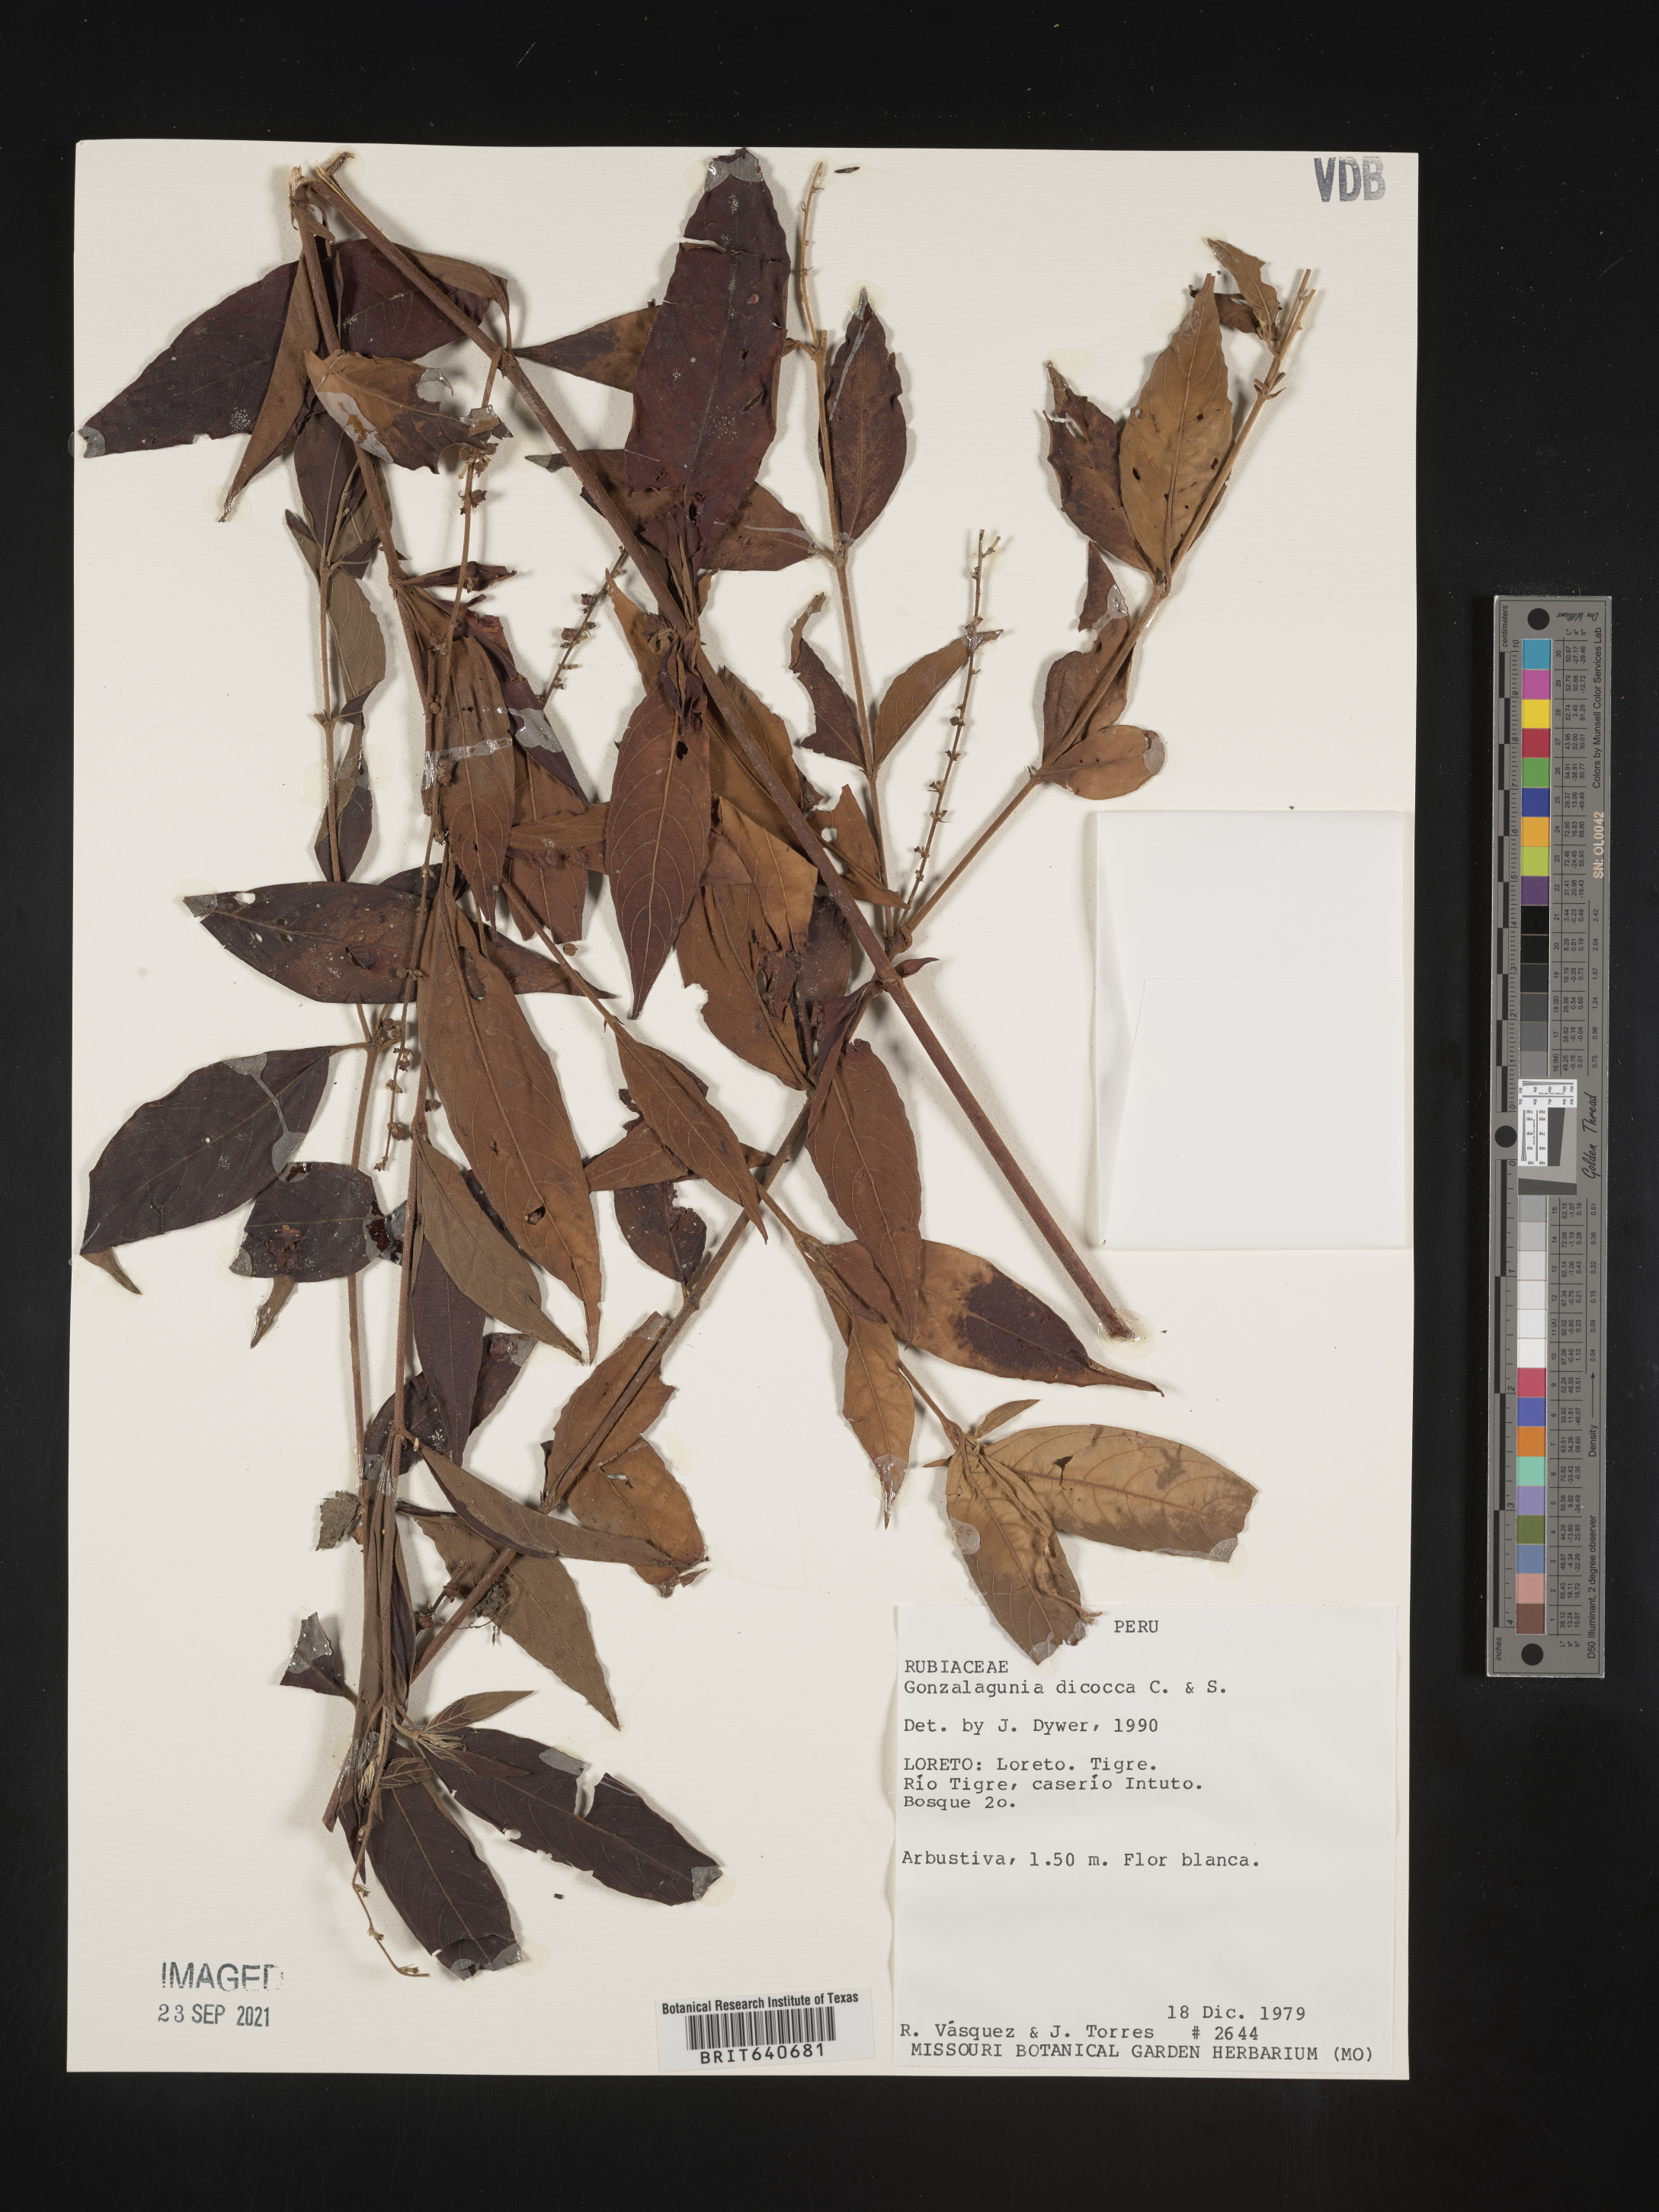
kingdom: Plantae
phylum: Tracheophyta
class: Magnoliopsida
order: Gentianales
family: Rubiaceae
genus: Gonzalagunia
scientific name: Gonzalagunia
